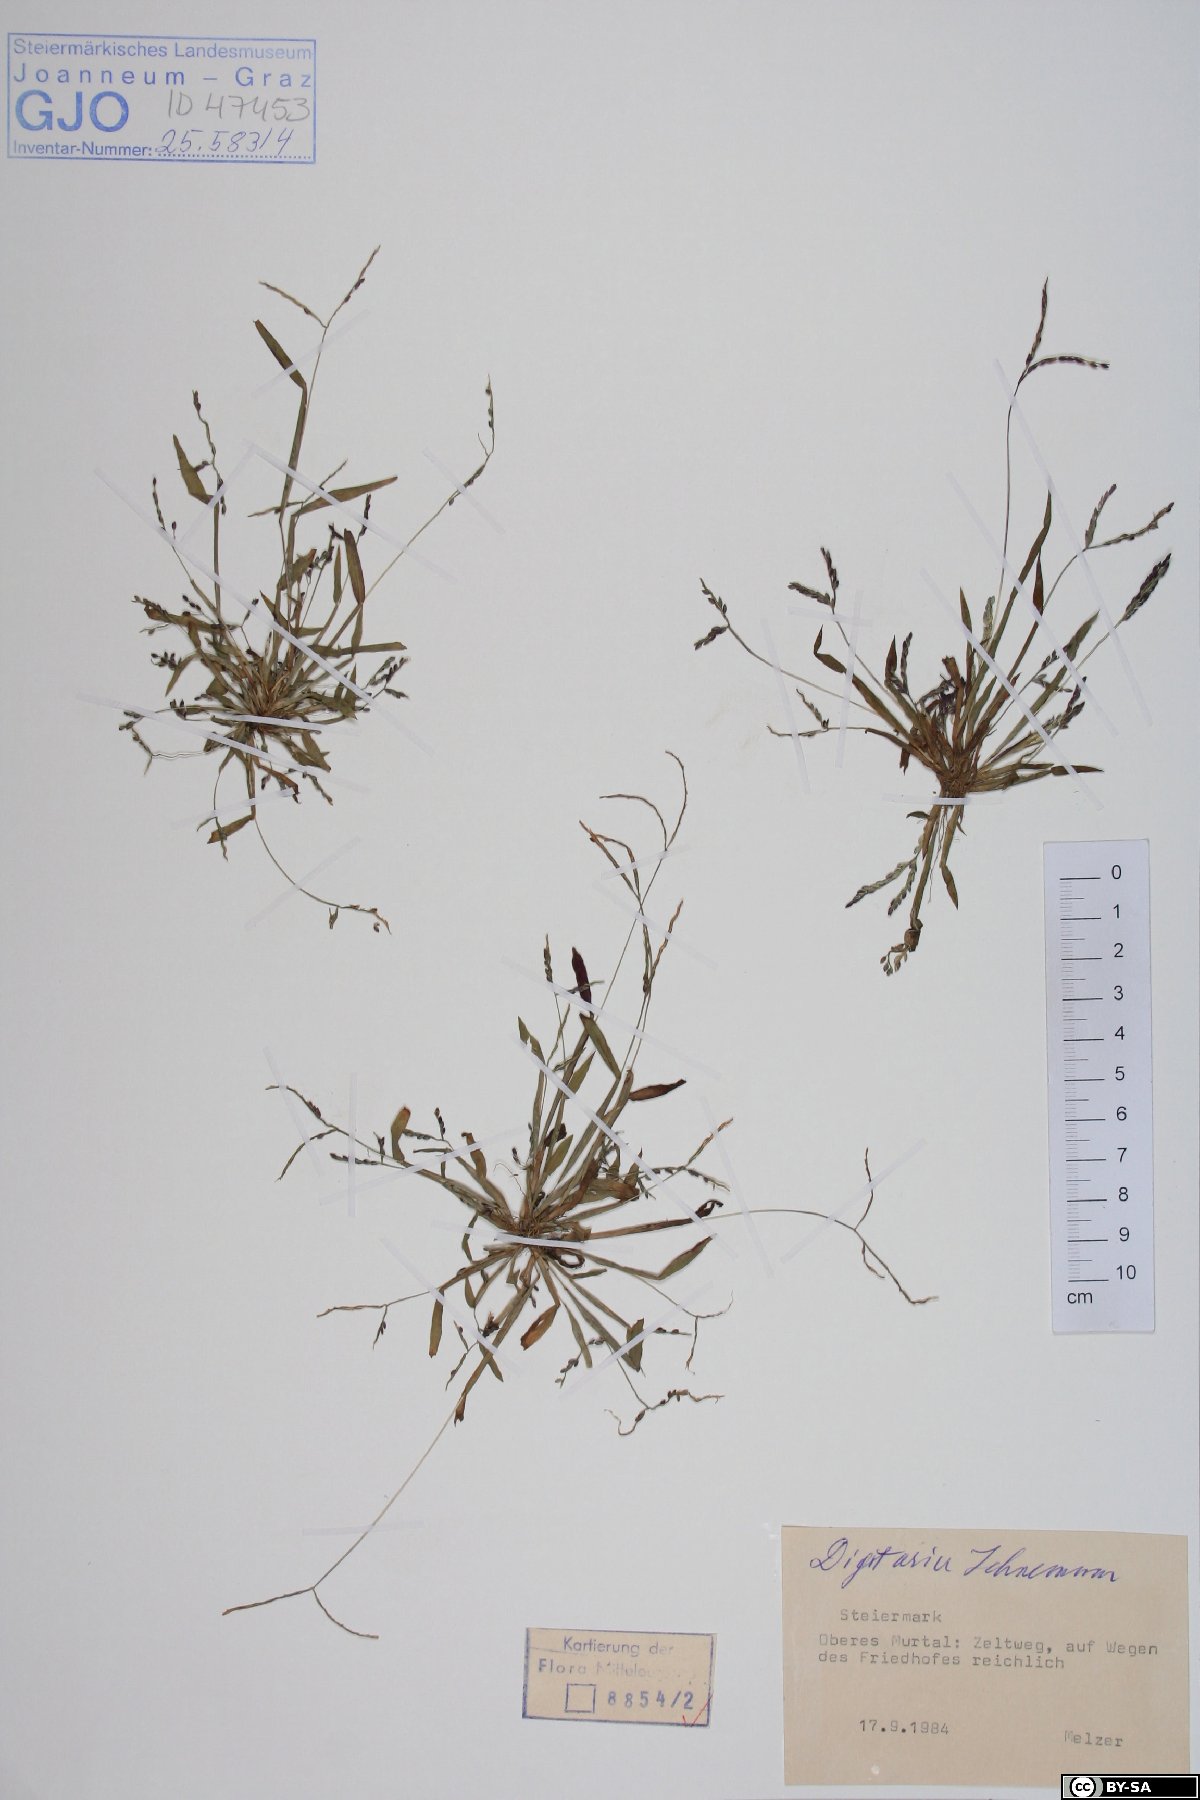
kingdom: Plantae
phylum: Tracheophyta
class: Liliopsida
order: Poales
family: Poaceae
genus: Digitaria
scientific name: Digitaria ischaemum
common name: Smooth crabgrass
